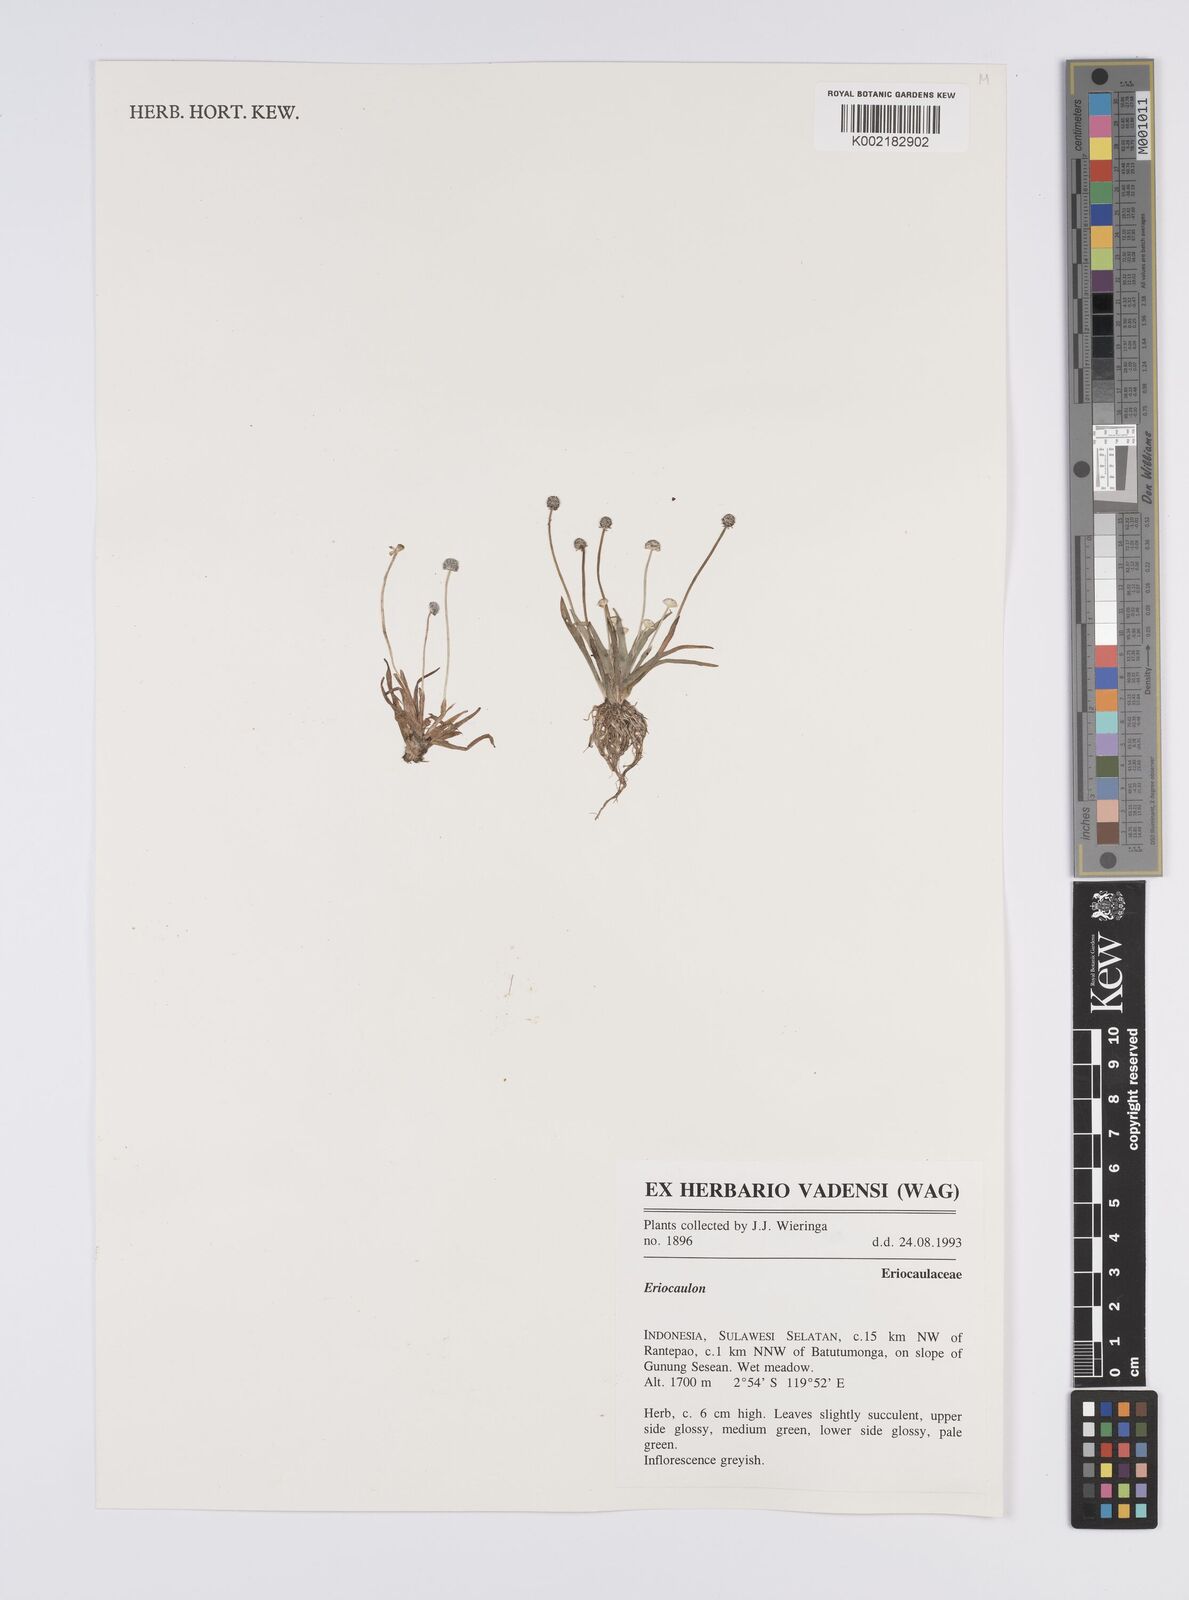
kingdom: Plantae
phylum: Tracheophyta
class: Liliopsida
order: Poales
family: Eriocaulaceae
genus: Eriocaulon
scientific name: Eriocaulon
